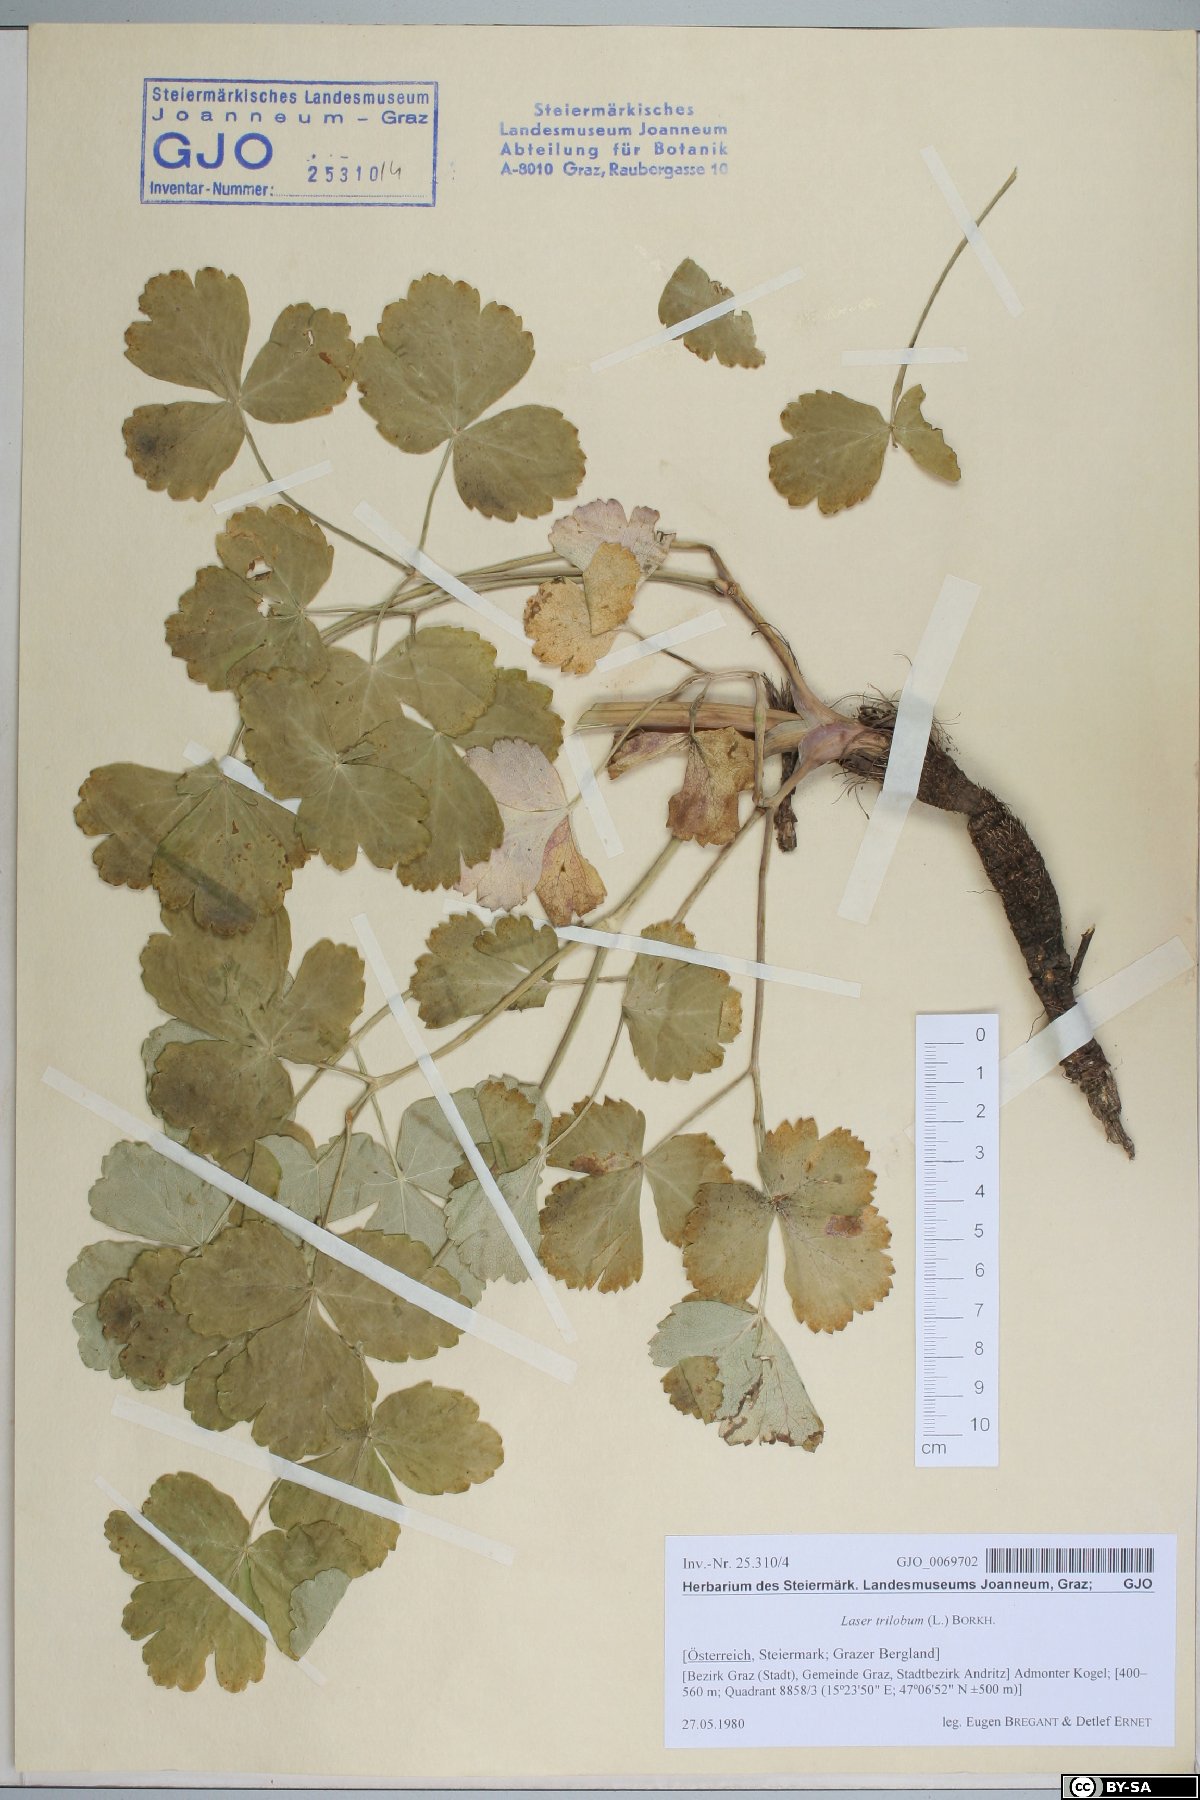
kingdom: Plantae
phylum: Tracheophyta
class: Magnoliopsida
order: Apiales
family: Apiaceae
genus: Laser
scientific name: Laser trilobum
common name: Laser
